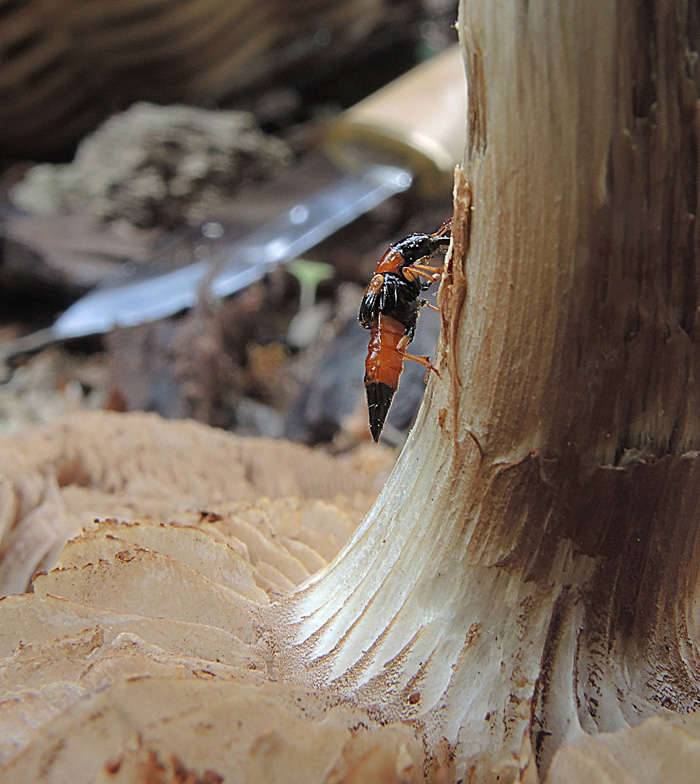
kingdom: Fungi
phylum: Basidiomycota
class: Agaricomycetes
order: Agaricales
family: Strophariaceae
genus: Agrocybe
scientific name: Agrocybe praecox
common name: tidlig agerhat
